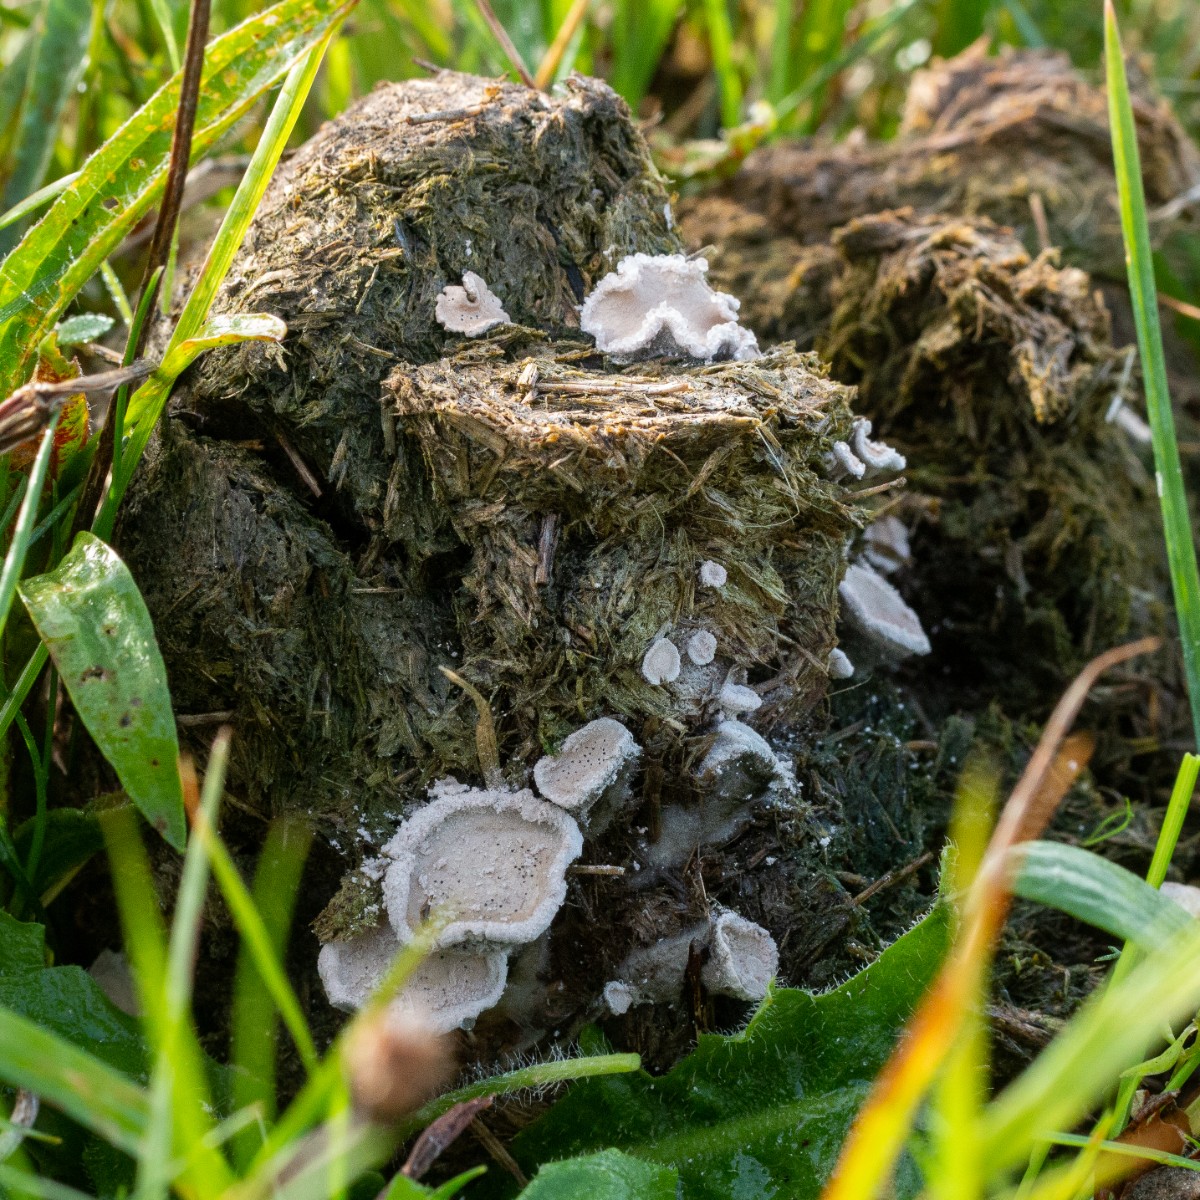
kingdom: Fungi
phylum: Ascomycota
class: Sordariomycetes
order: Xylariales
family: Xylariaceae
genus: Poronia
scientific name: Poronia punctata
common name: stor priksvamp
